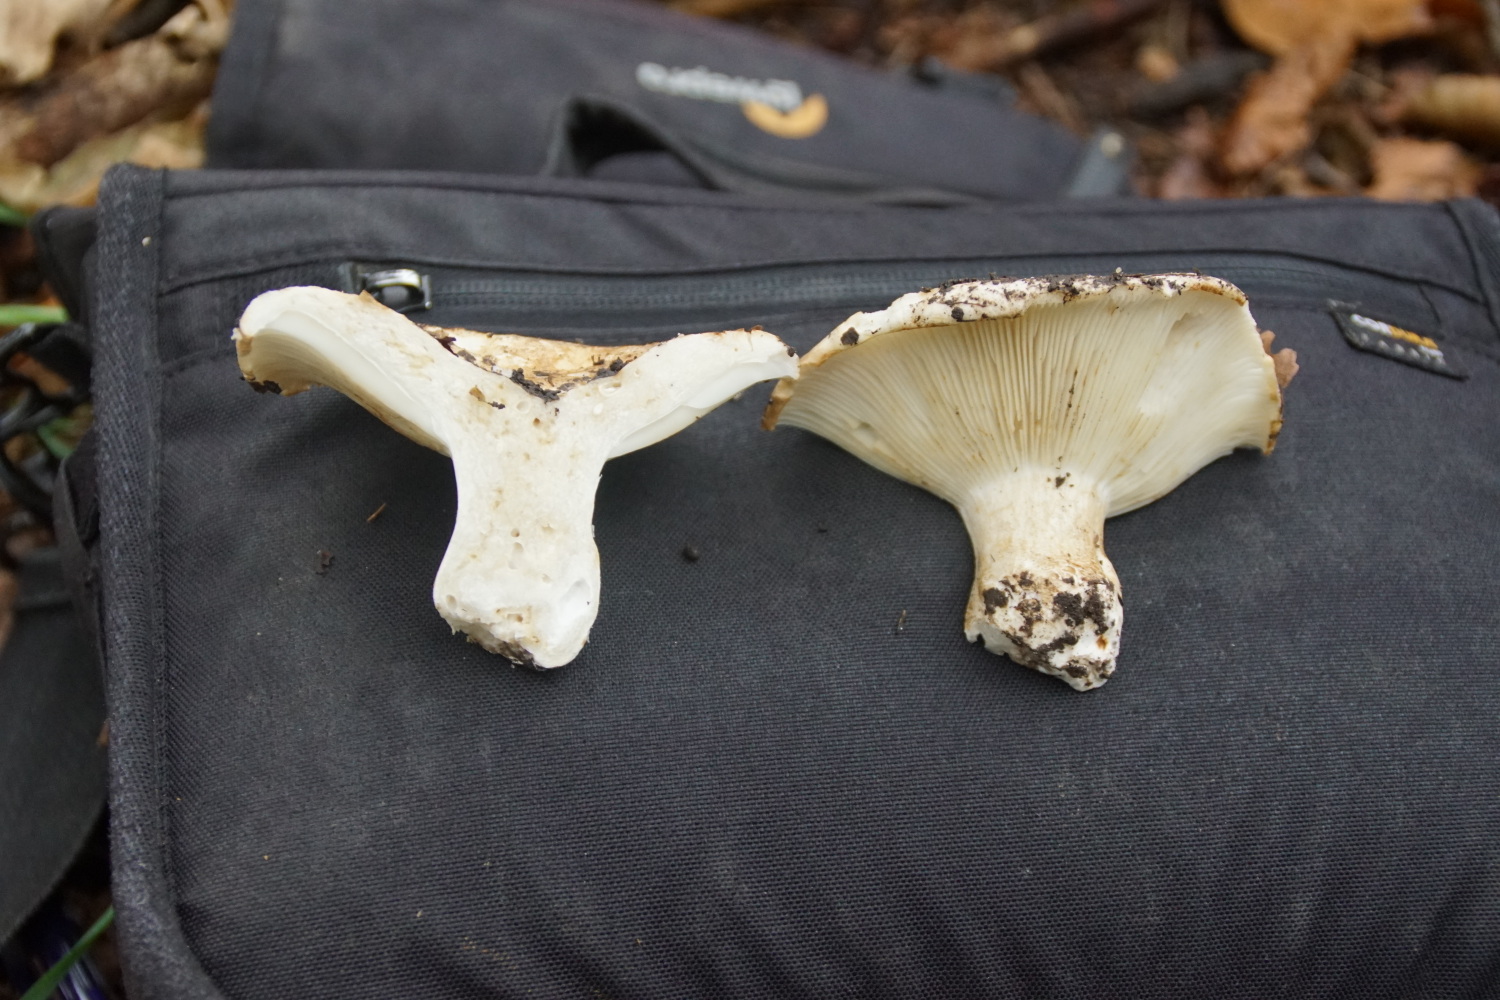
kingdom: Fungi
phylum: Basidiomycota
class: Agaricomycetes
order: Russulales
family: Russulaceae
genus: Russula
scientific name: Russula
